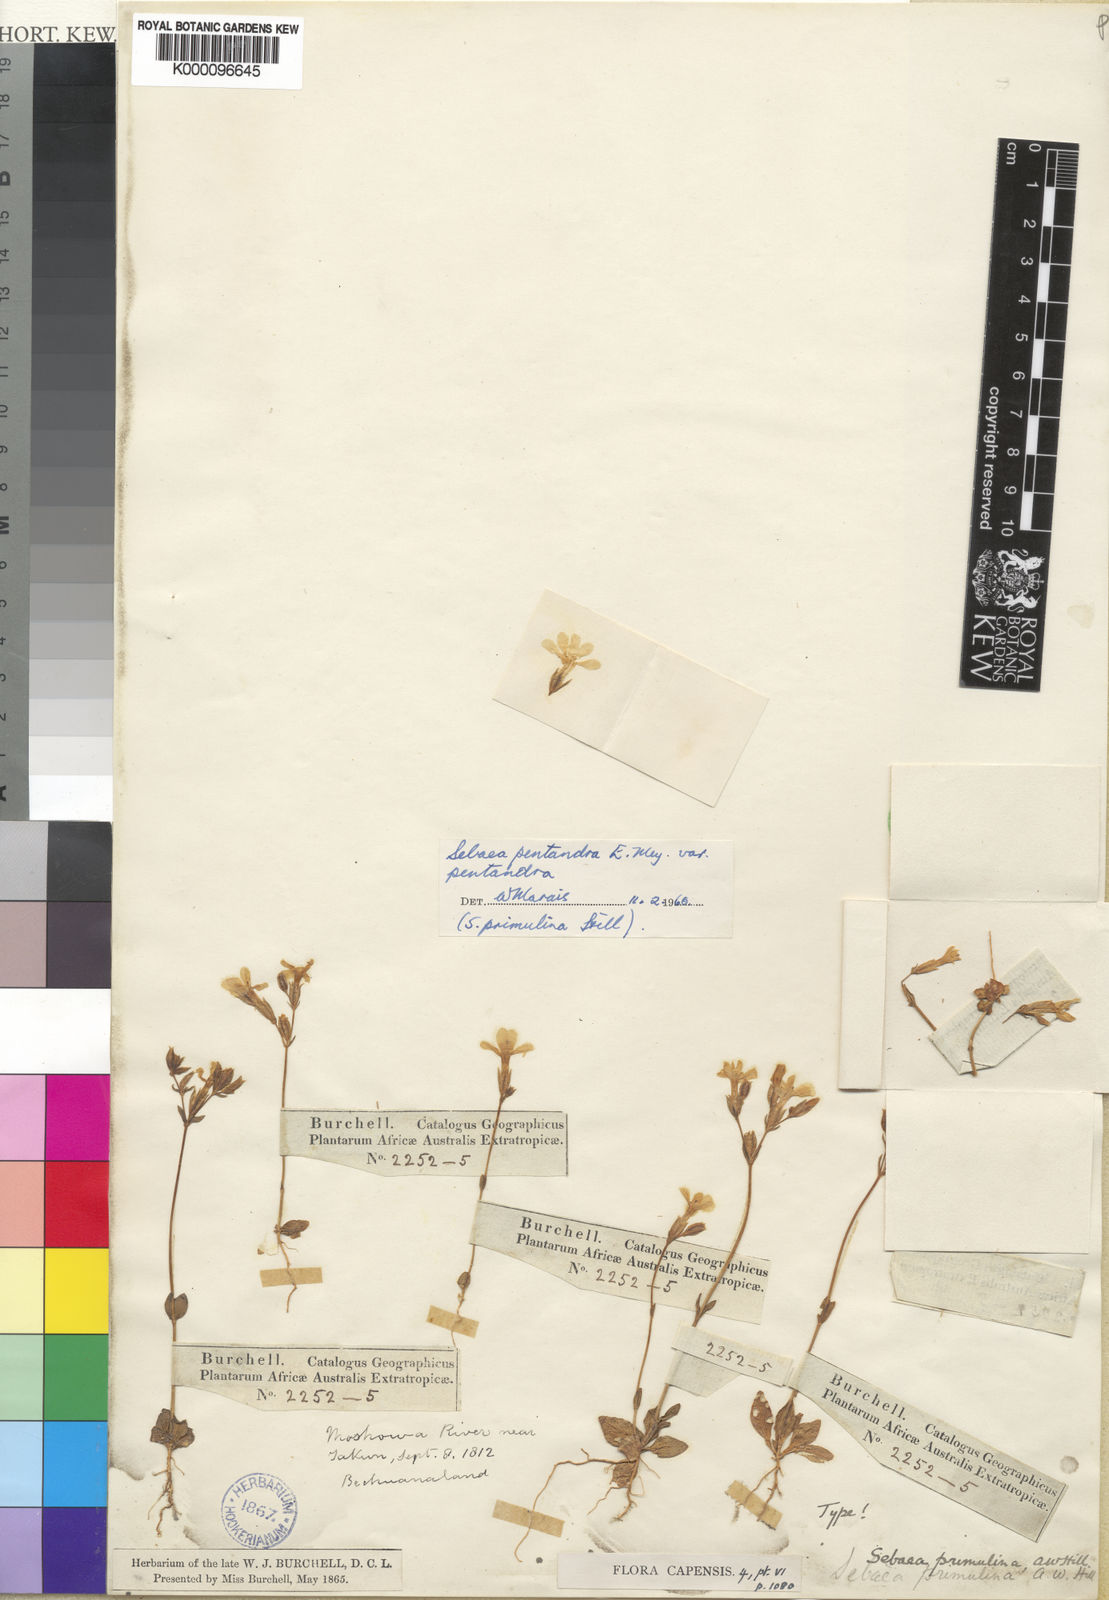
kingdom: Plantae
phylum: Tracheophyta
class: Magnoliopsida
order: Gentianales
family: Gentianaceae
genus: Sebaea
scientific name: Sebaea pentandra
